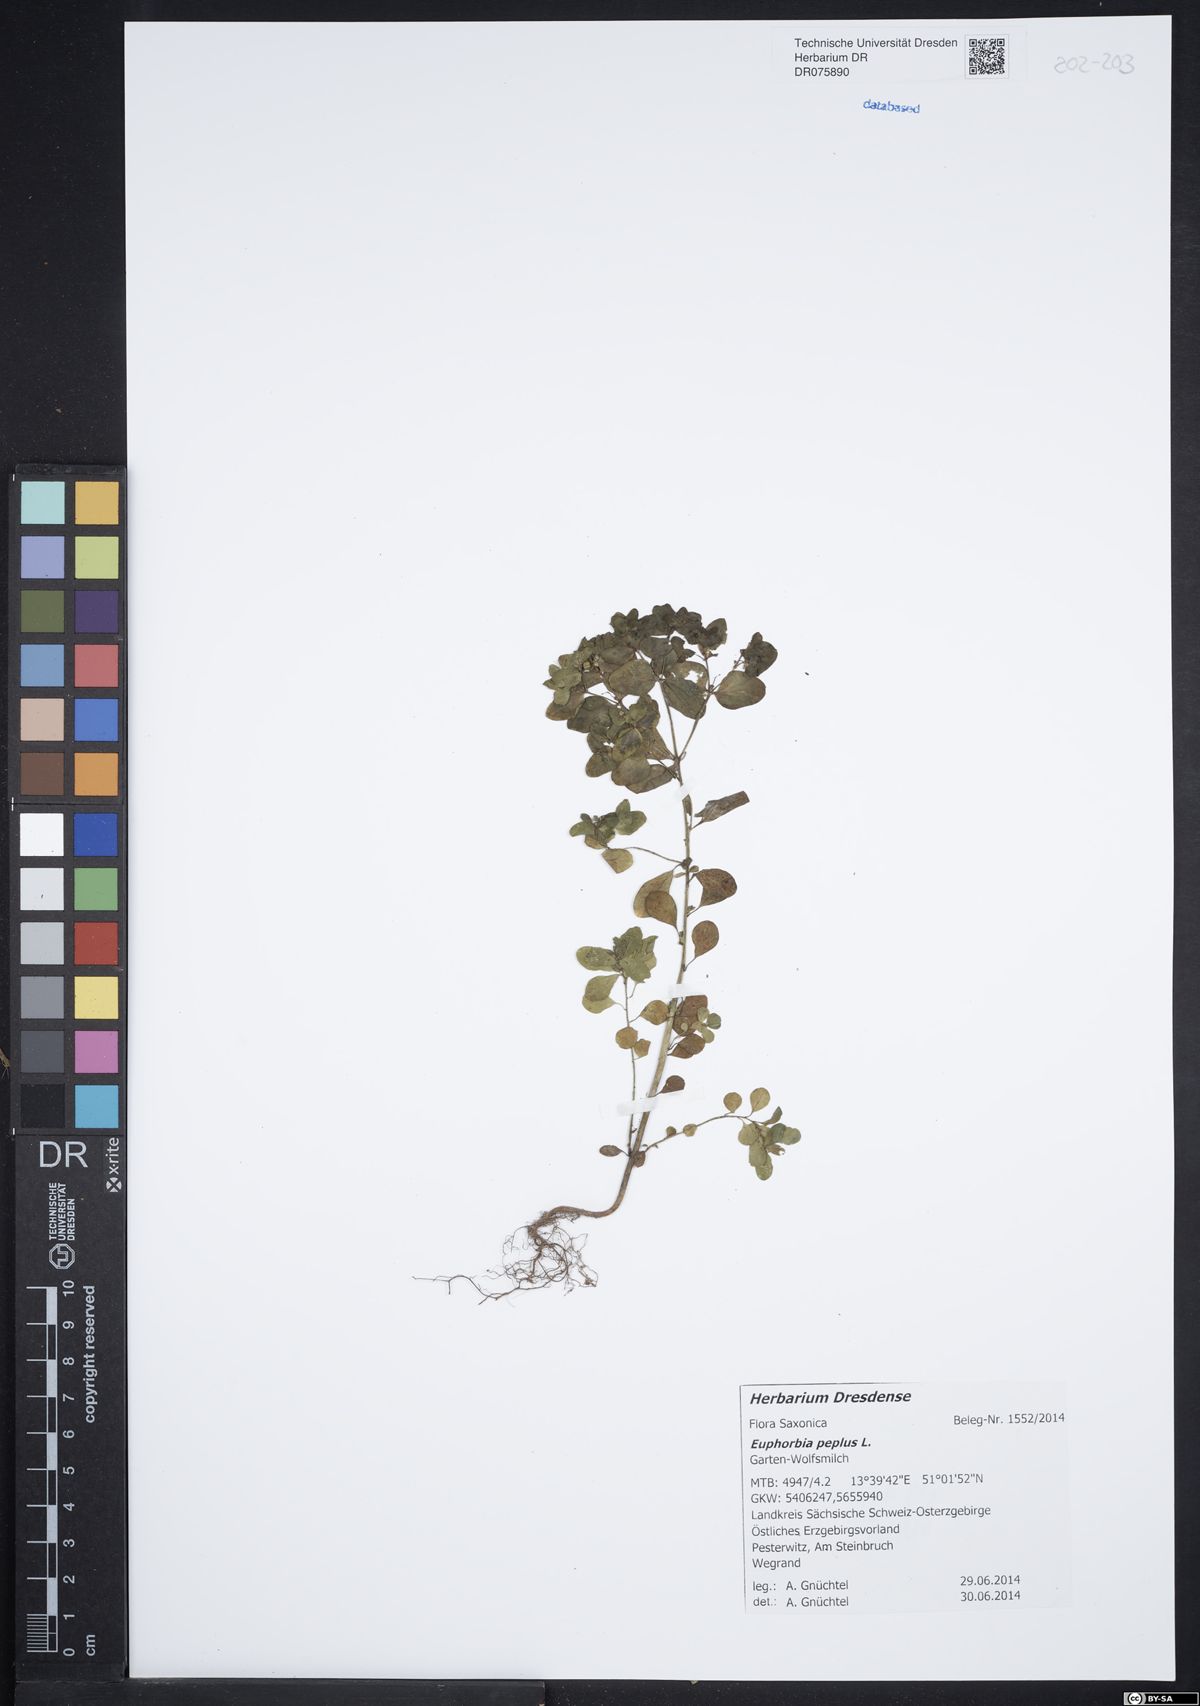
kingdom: Plantae
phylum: Tracheophyta
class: Magnoliopsida
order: Malpighiales
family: Euphorbiaceae
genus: Euphorbia
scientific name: Euphorbia peplus
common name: Petty spurge
